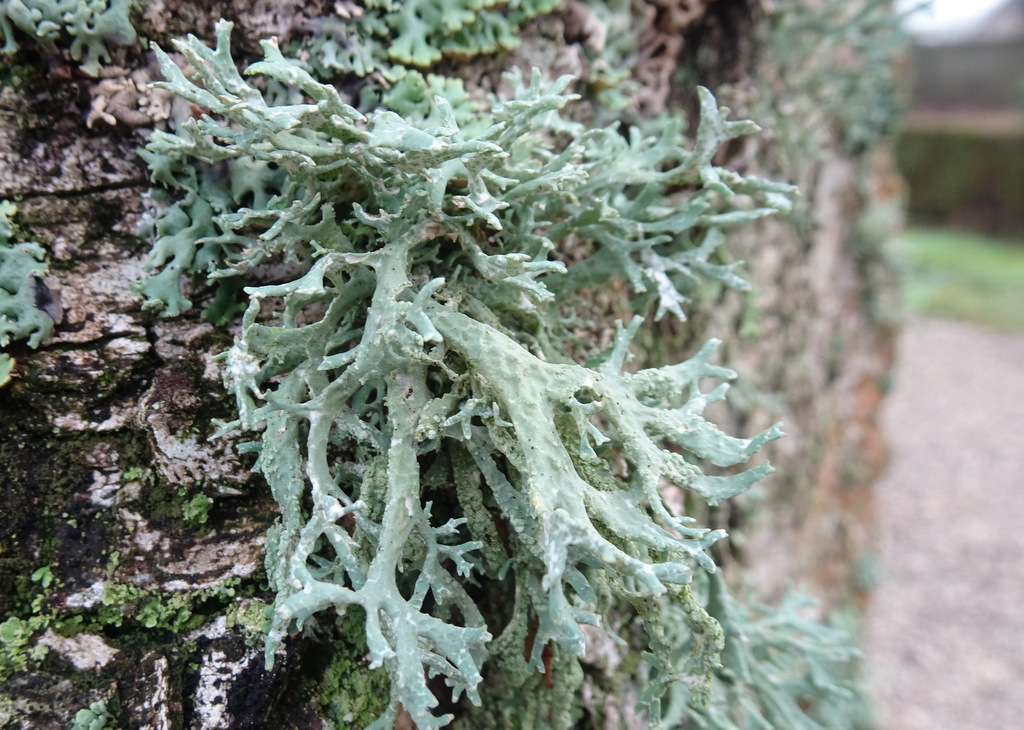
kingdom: Fungi
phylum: Ascomycota
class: Lecanoromycetes
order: Lecanorales
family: Parmeliaceae
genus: Evernia
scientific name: Evernia prunastri
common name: almindelig slåenlav
